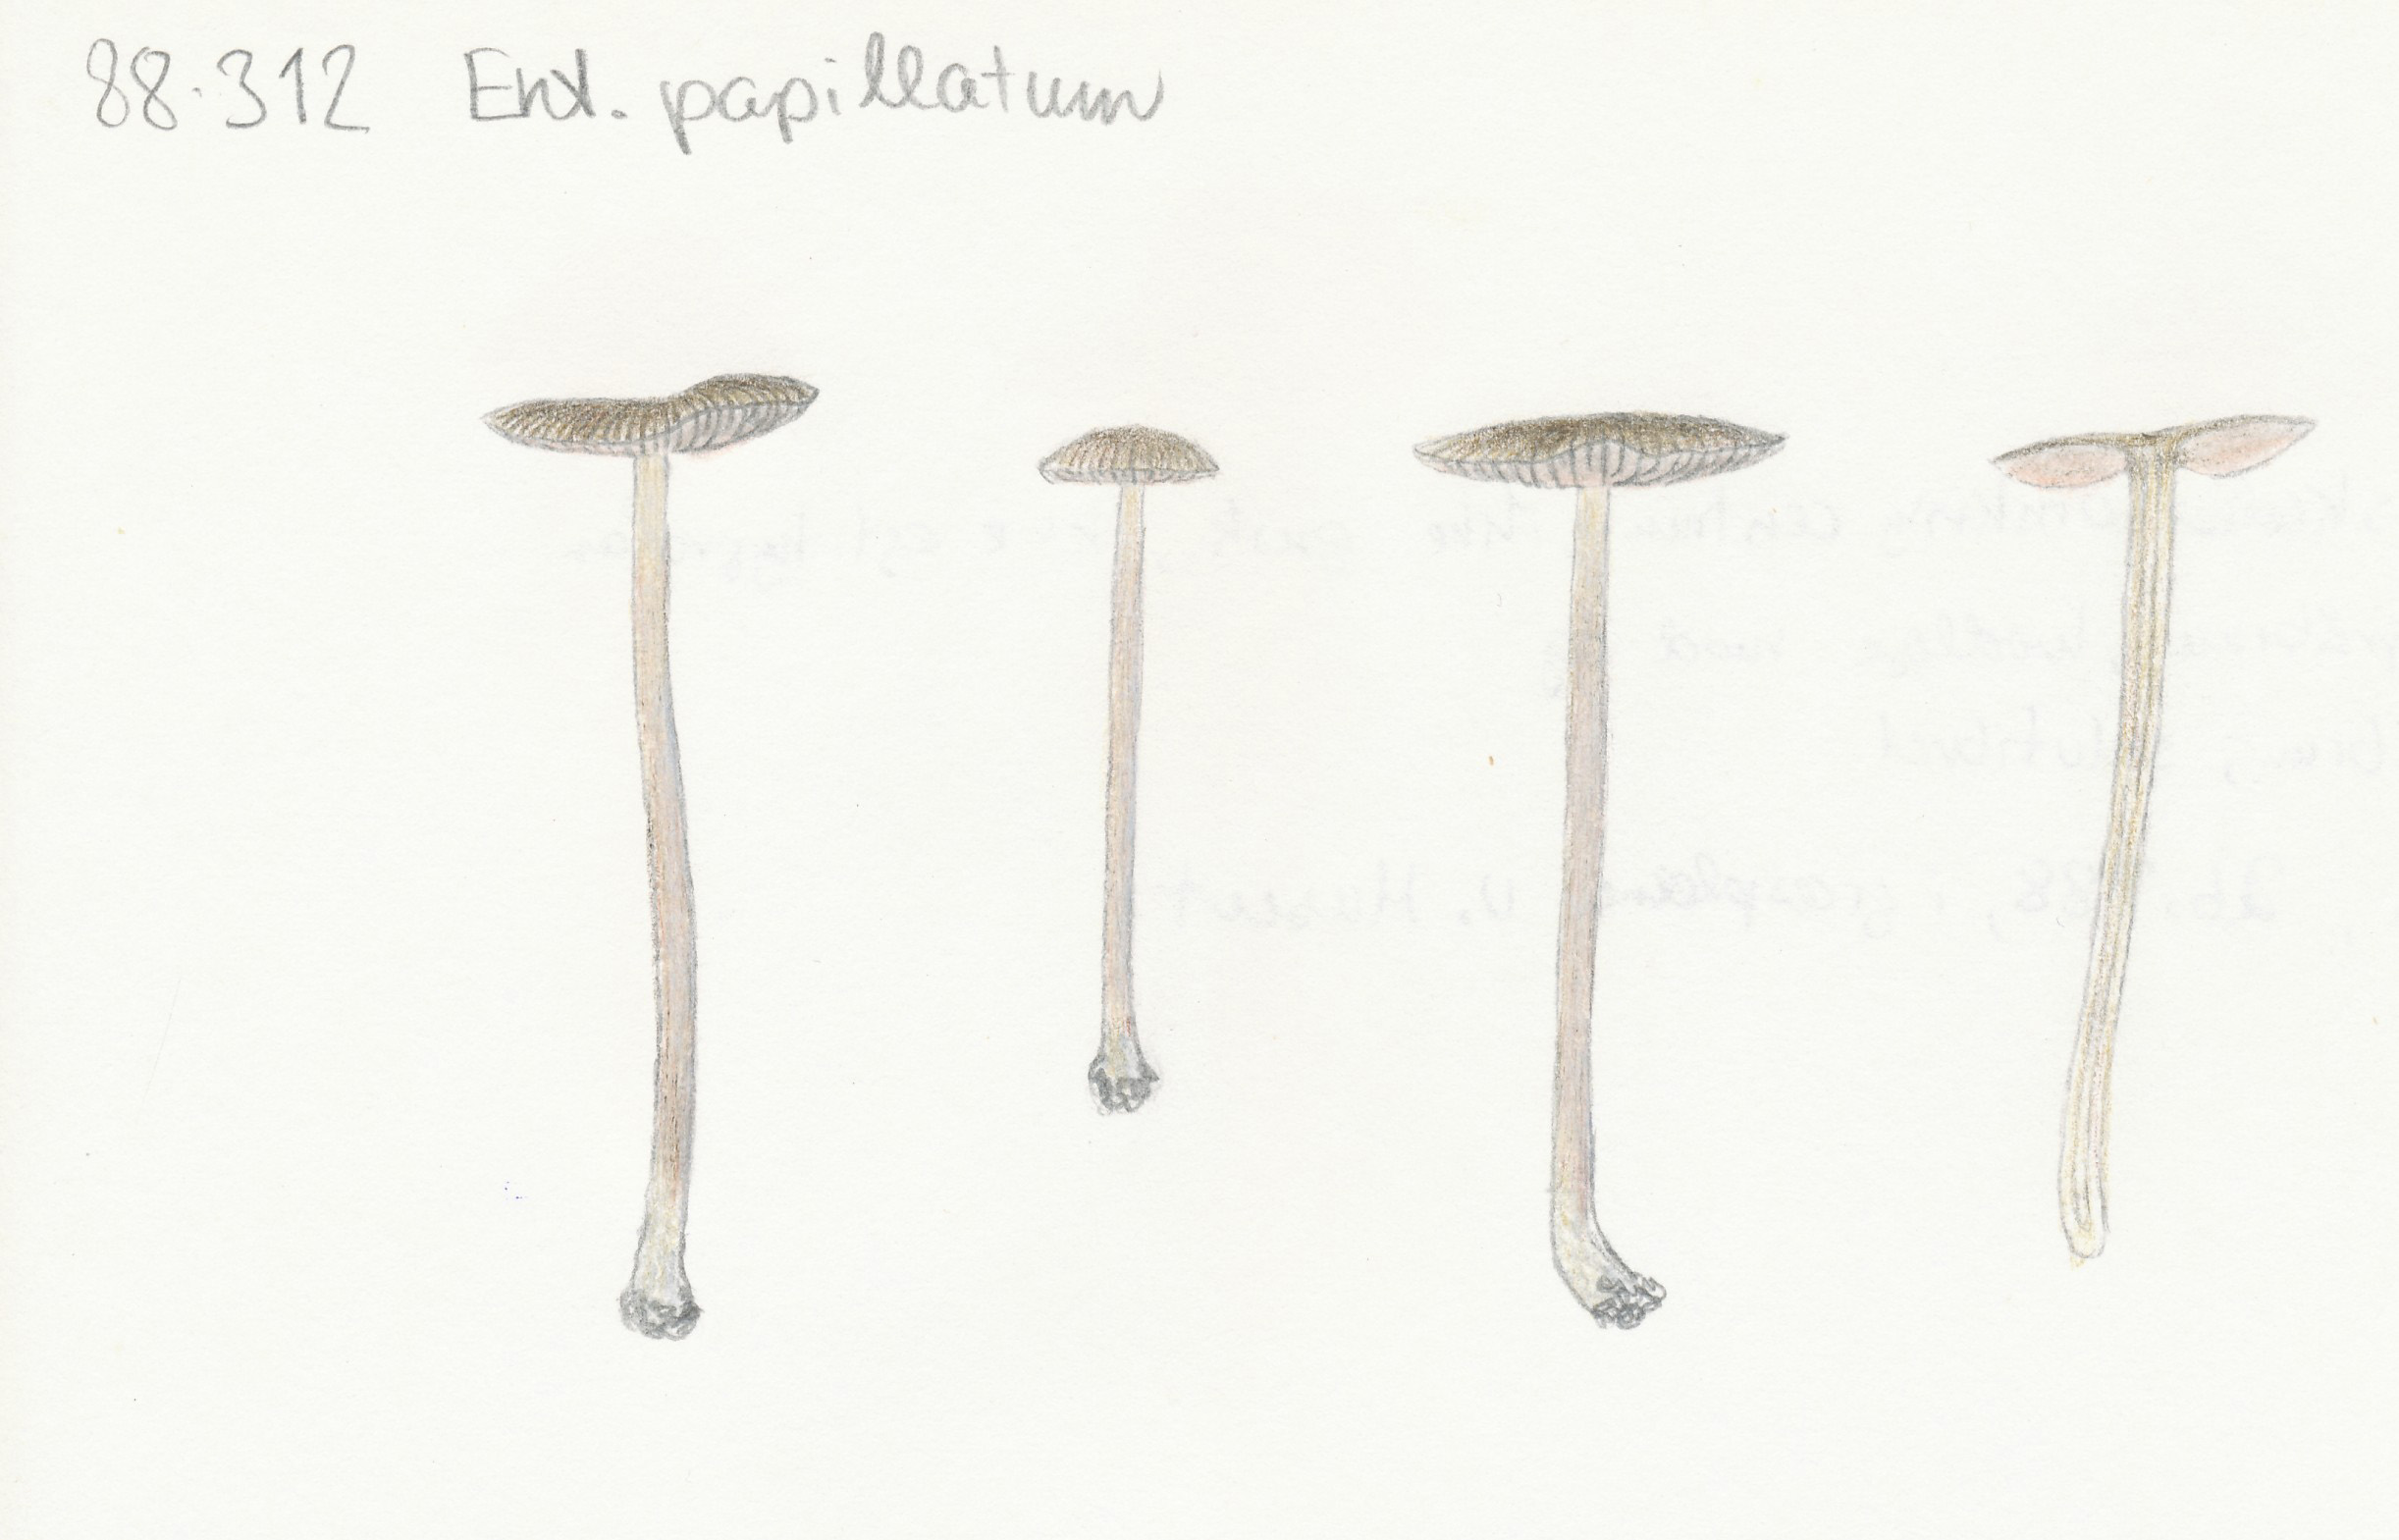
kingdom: Fungi
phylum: Basidiomycota
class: Agaricomycetes
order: Agaricales
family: Entolomataceae
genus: Entoloma
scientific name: Entoloma clandestinum
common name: tykbladet rødblad
